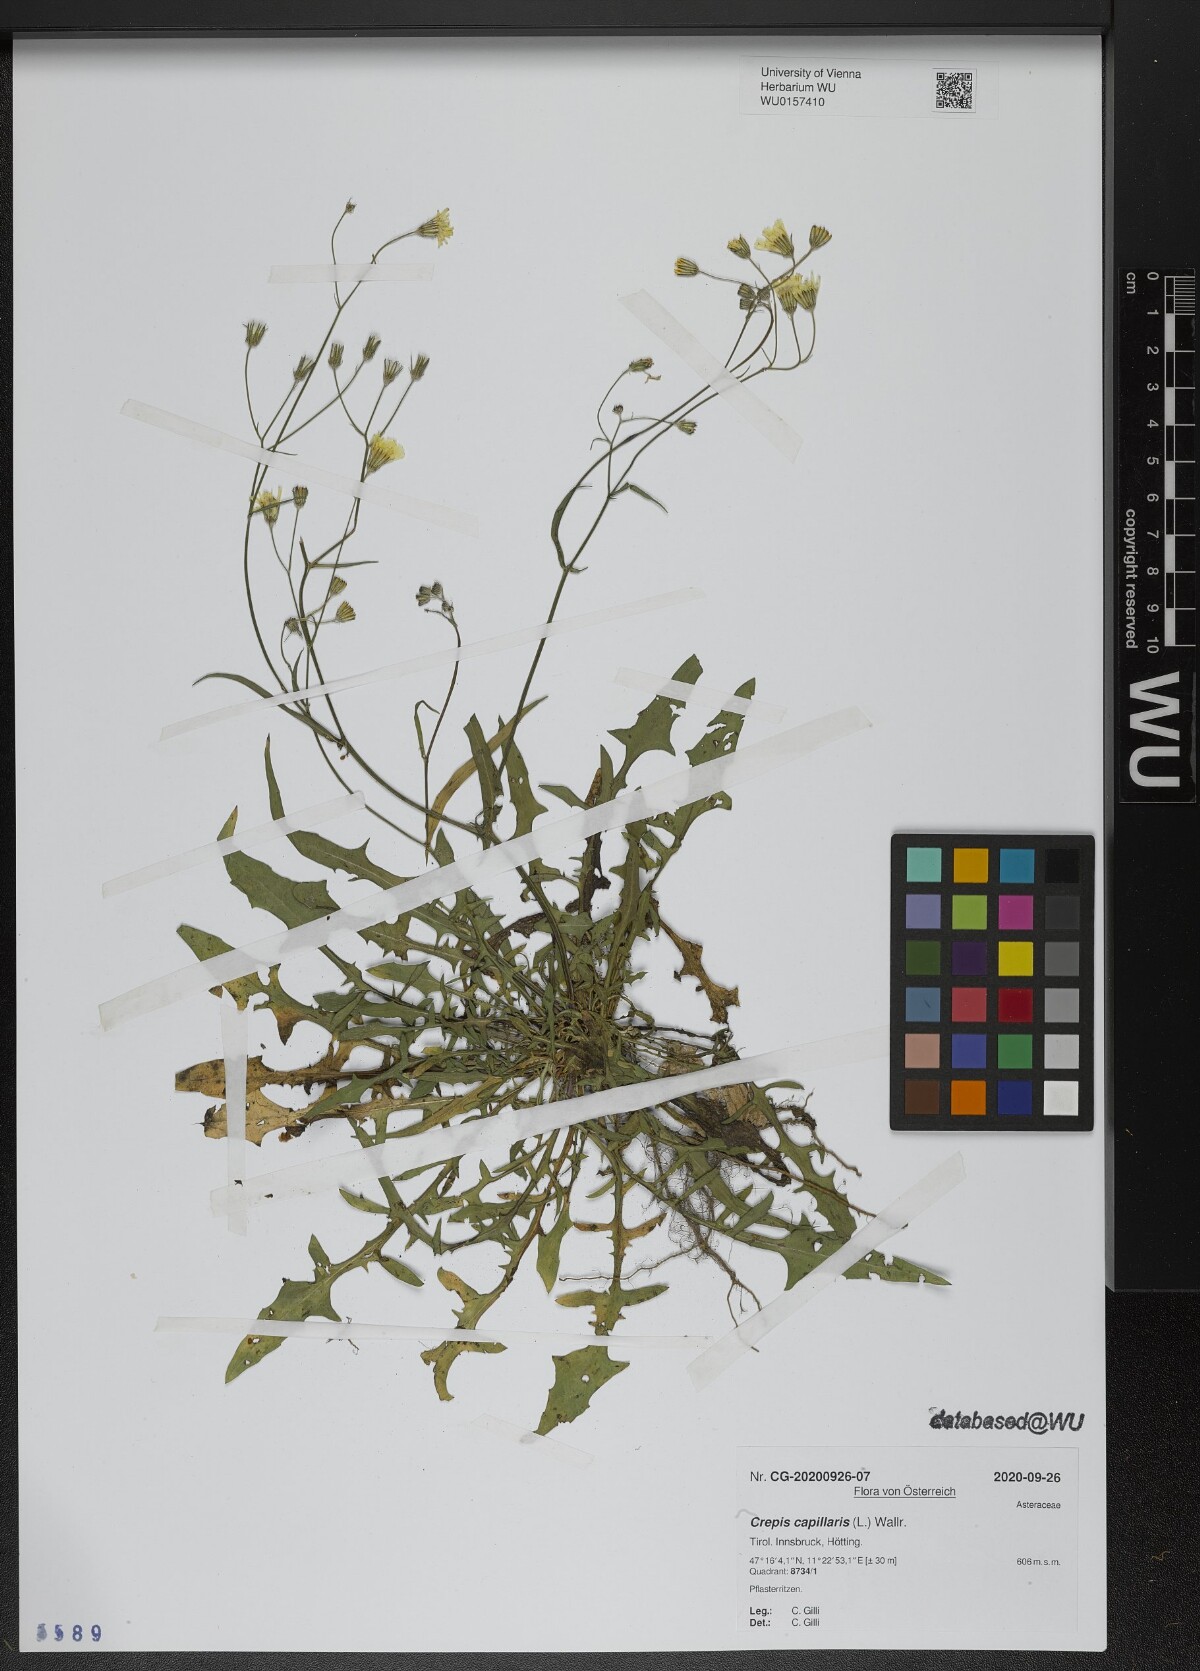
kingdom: Plantae
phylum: Tracheophyta
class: Magnoliopsida
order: Asterales
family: Asteraceae
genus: Crepis
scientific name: Crepis capillaris
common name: Smooth hawksbeard
